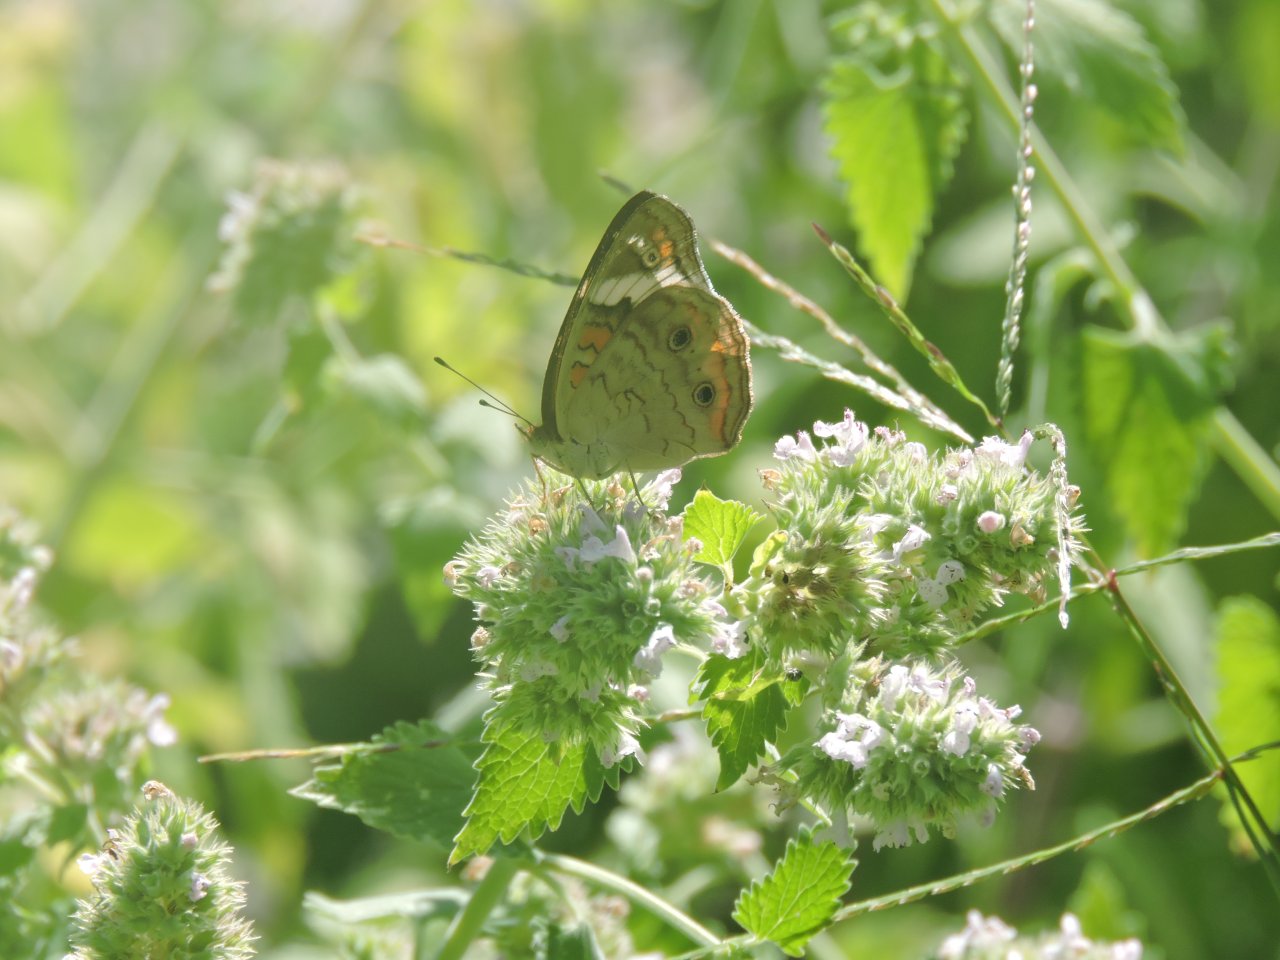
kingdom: Animalia
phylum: Arthropoda
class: Insecta
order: Lepidoptera
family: Nymphalidae
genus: Junonia
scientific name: Junonia coenia
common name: Common Buckeye
